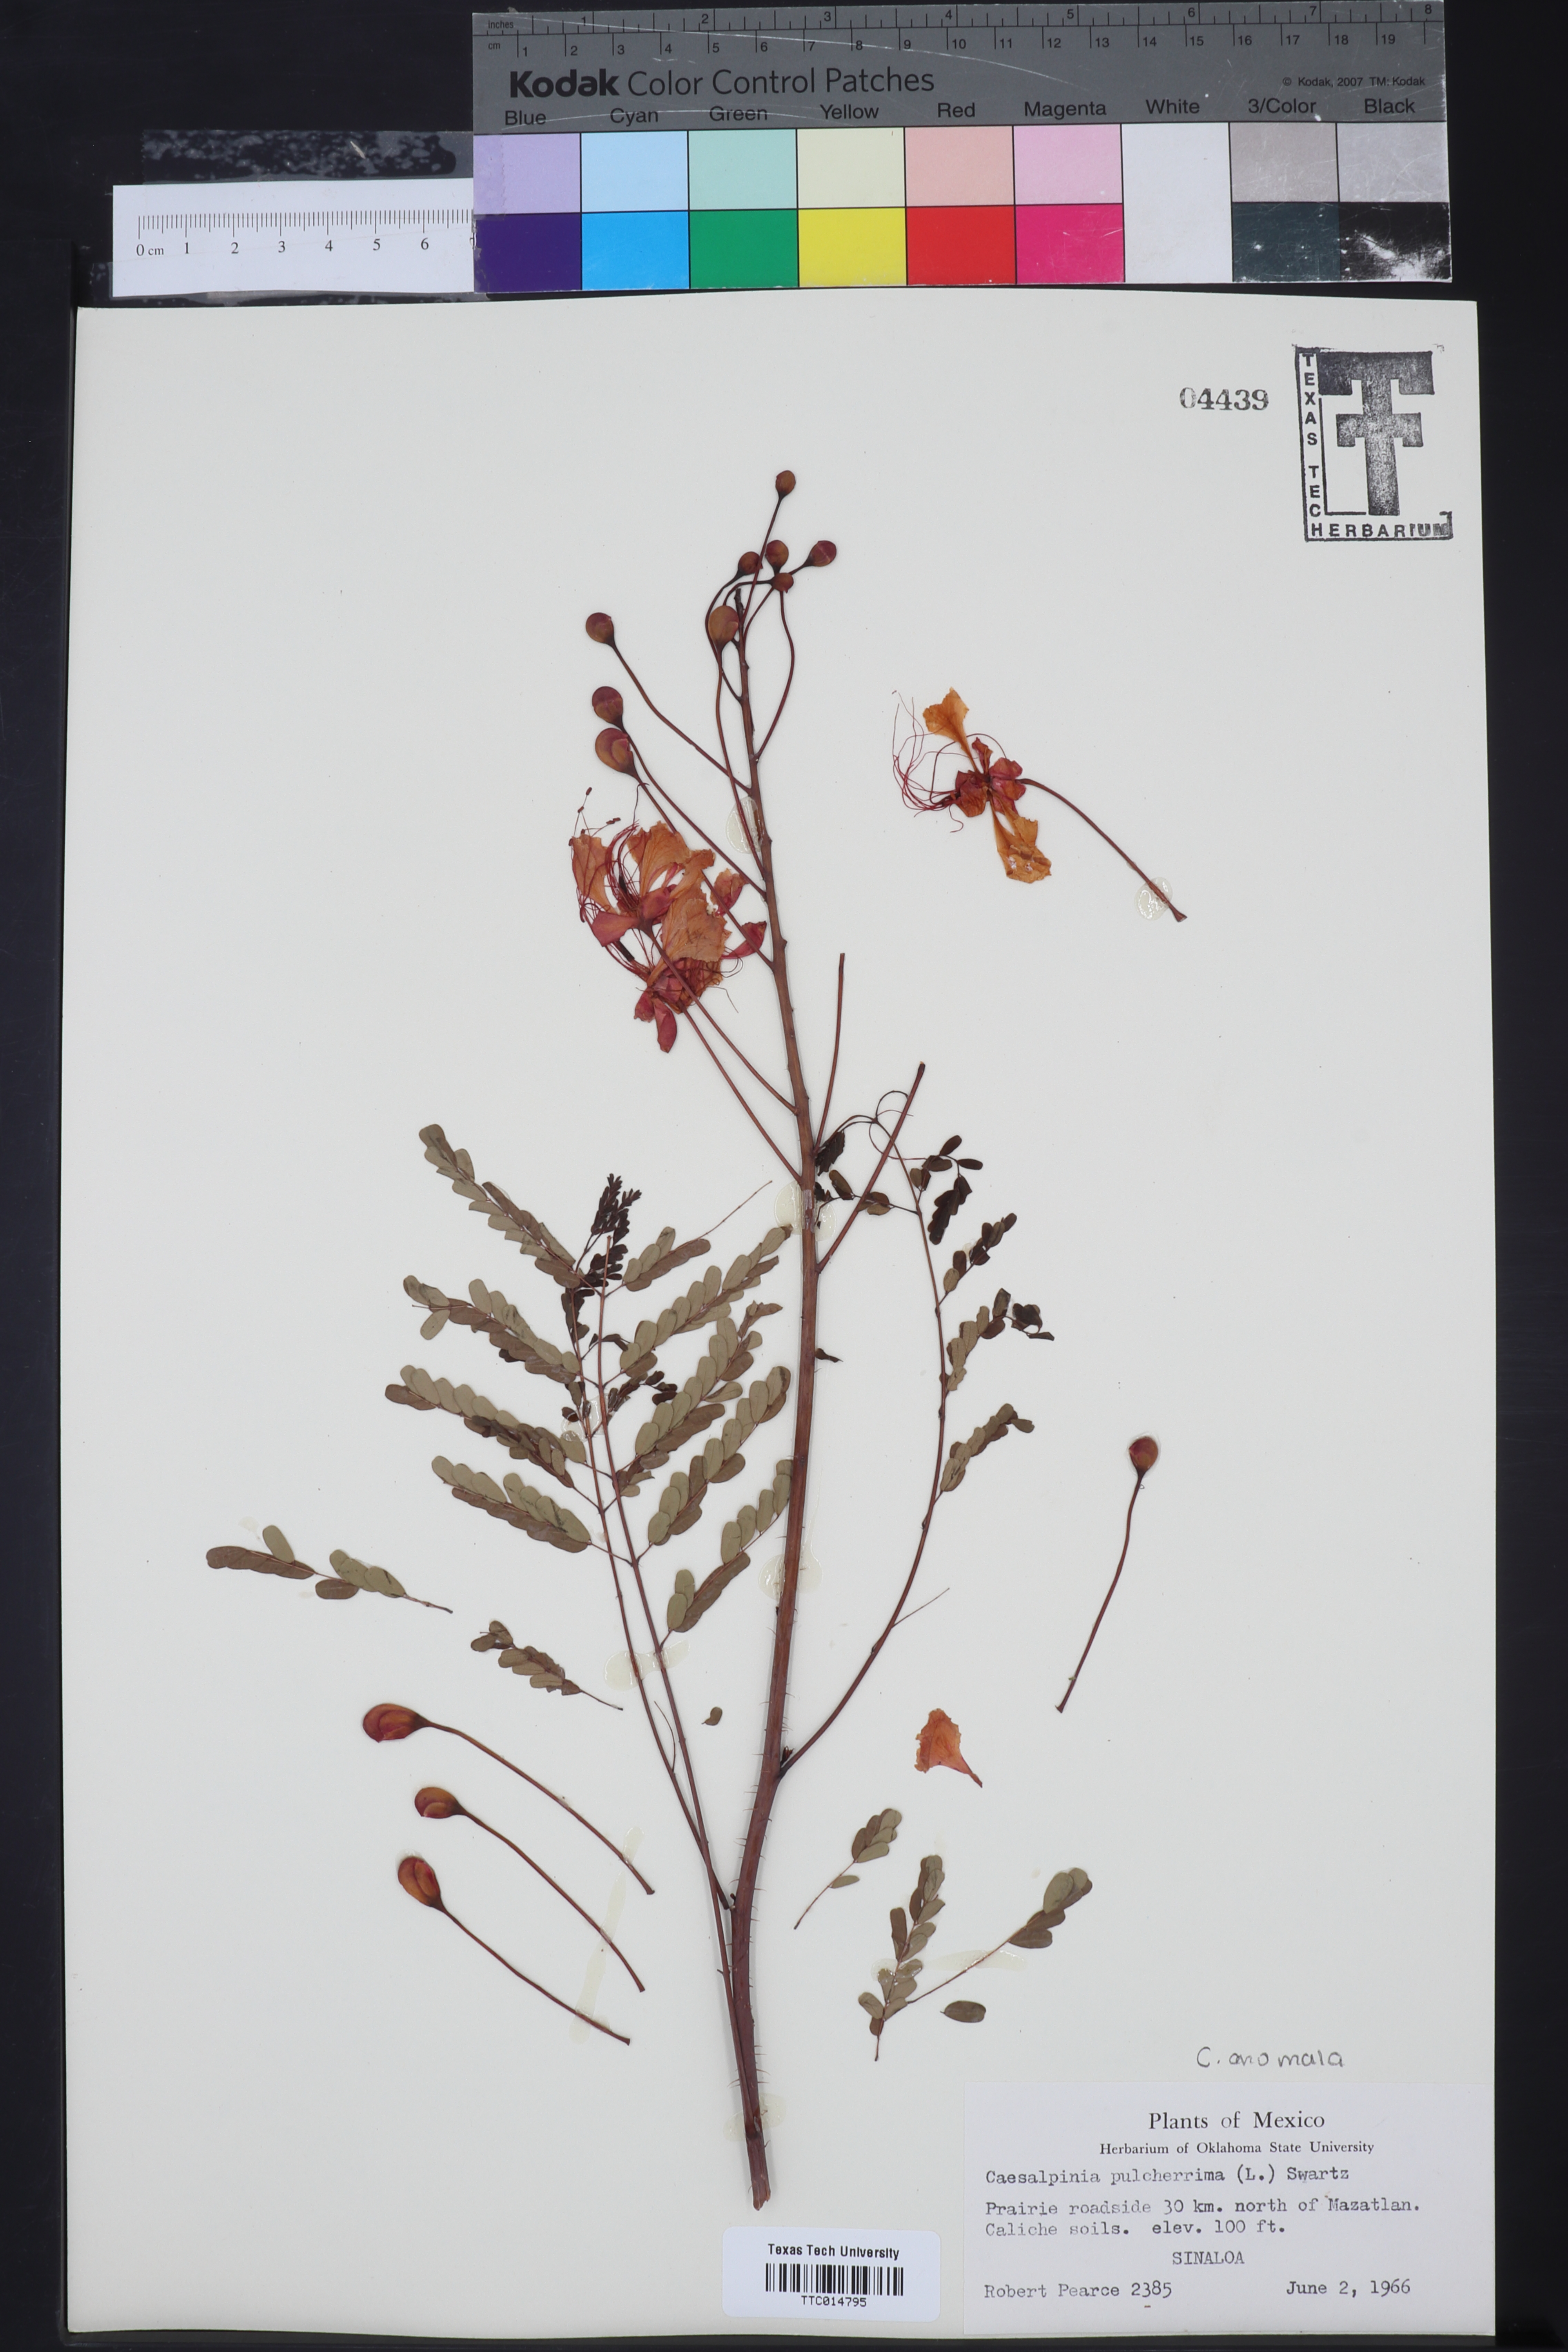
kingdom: Plantae
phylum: Tracheophyta
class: Magnoliopsida
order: Fabales
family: Fabaceae
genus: Caesalpinia
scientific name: Caesalpinia pulcherrima
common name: Pride-of-barbados
